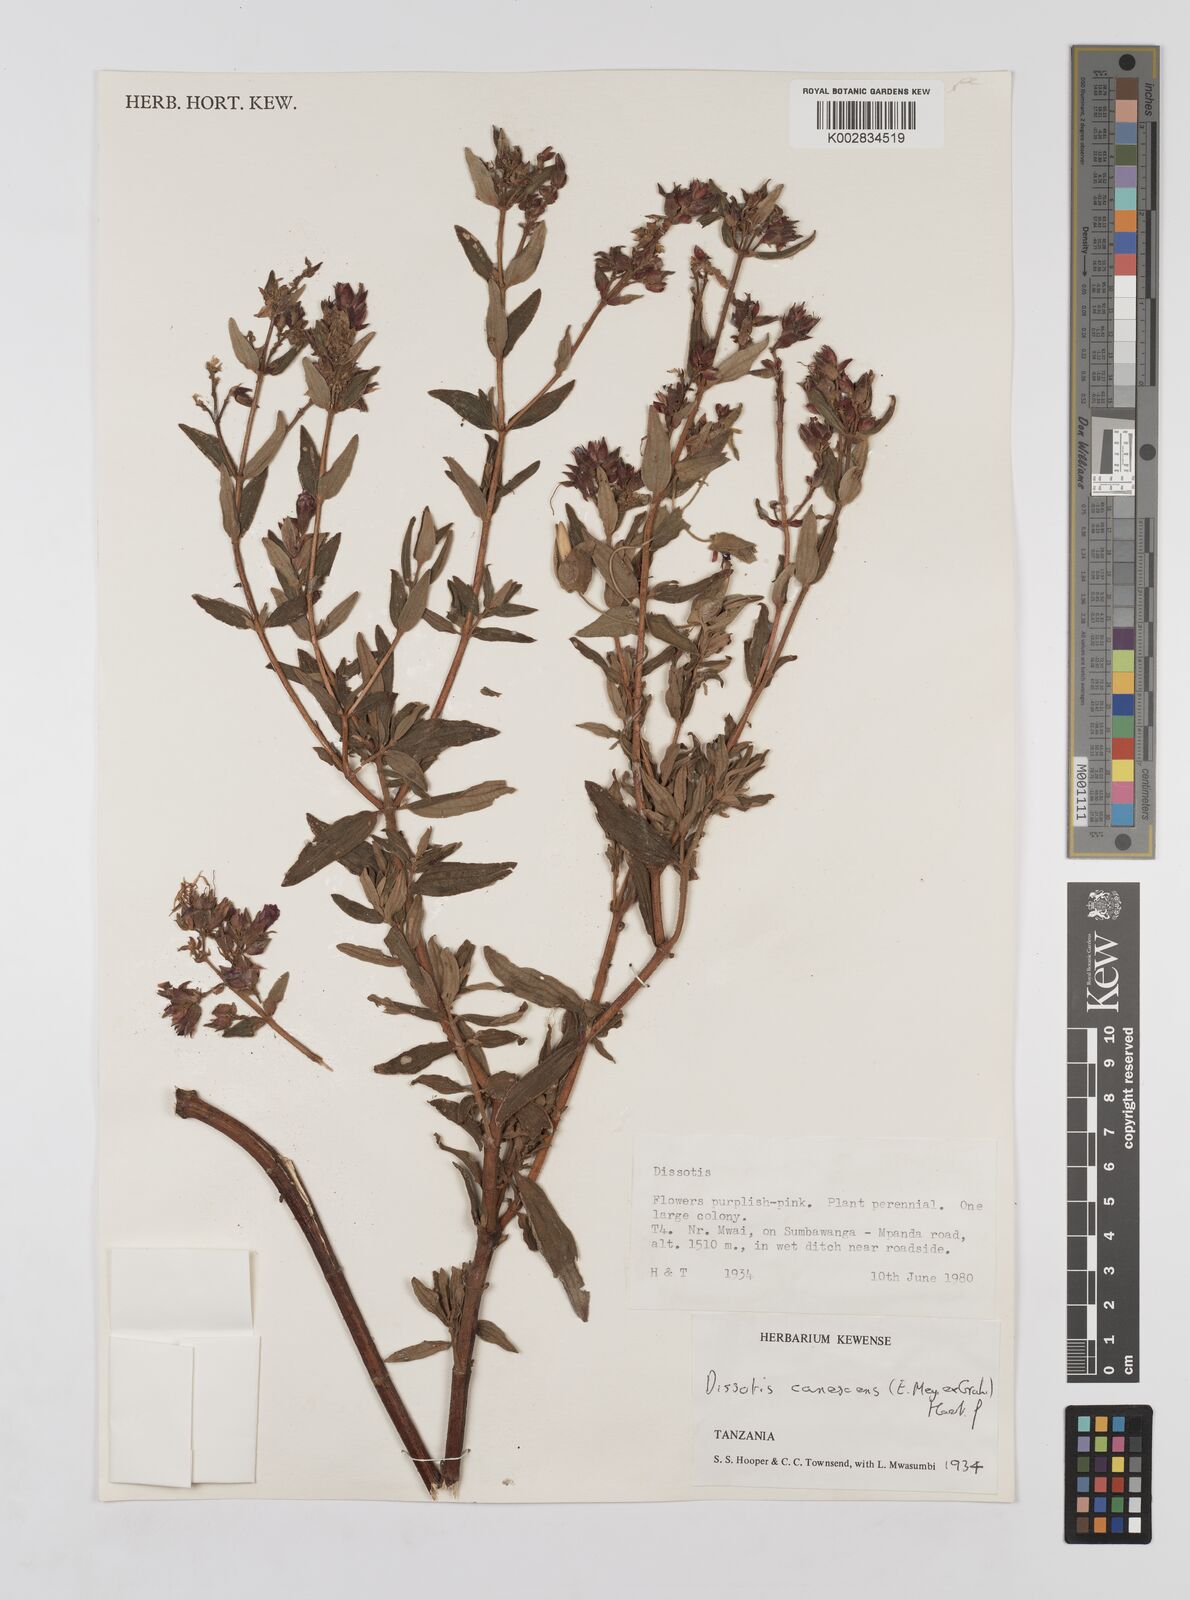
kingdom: Plantae
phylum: Tracheophyta
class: Magnoliopsida
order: Myrtales
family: Melastomataceae
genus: Argyrella
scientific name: Argyrella canescens
